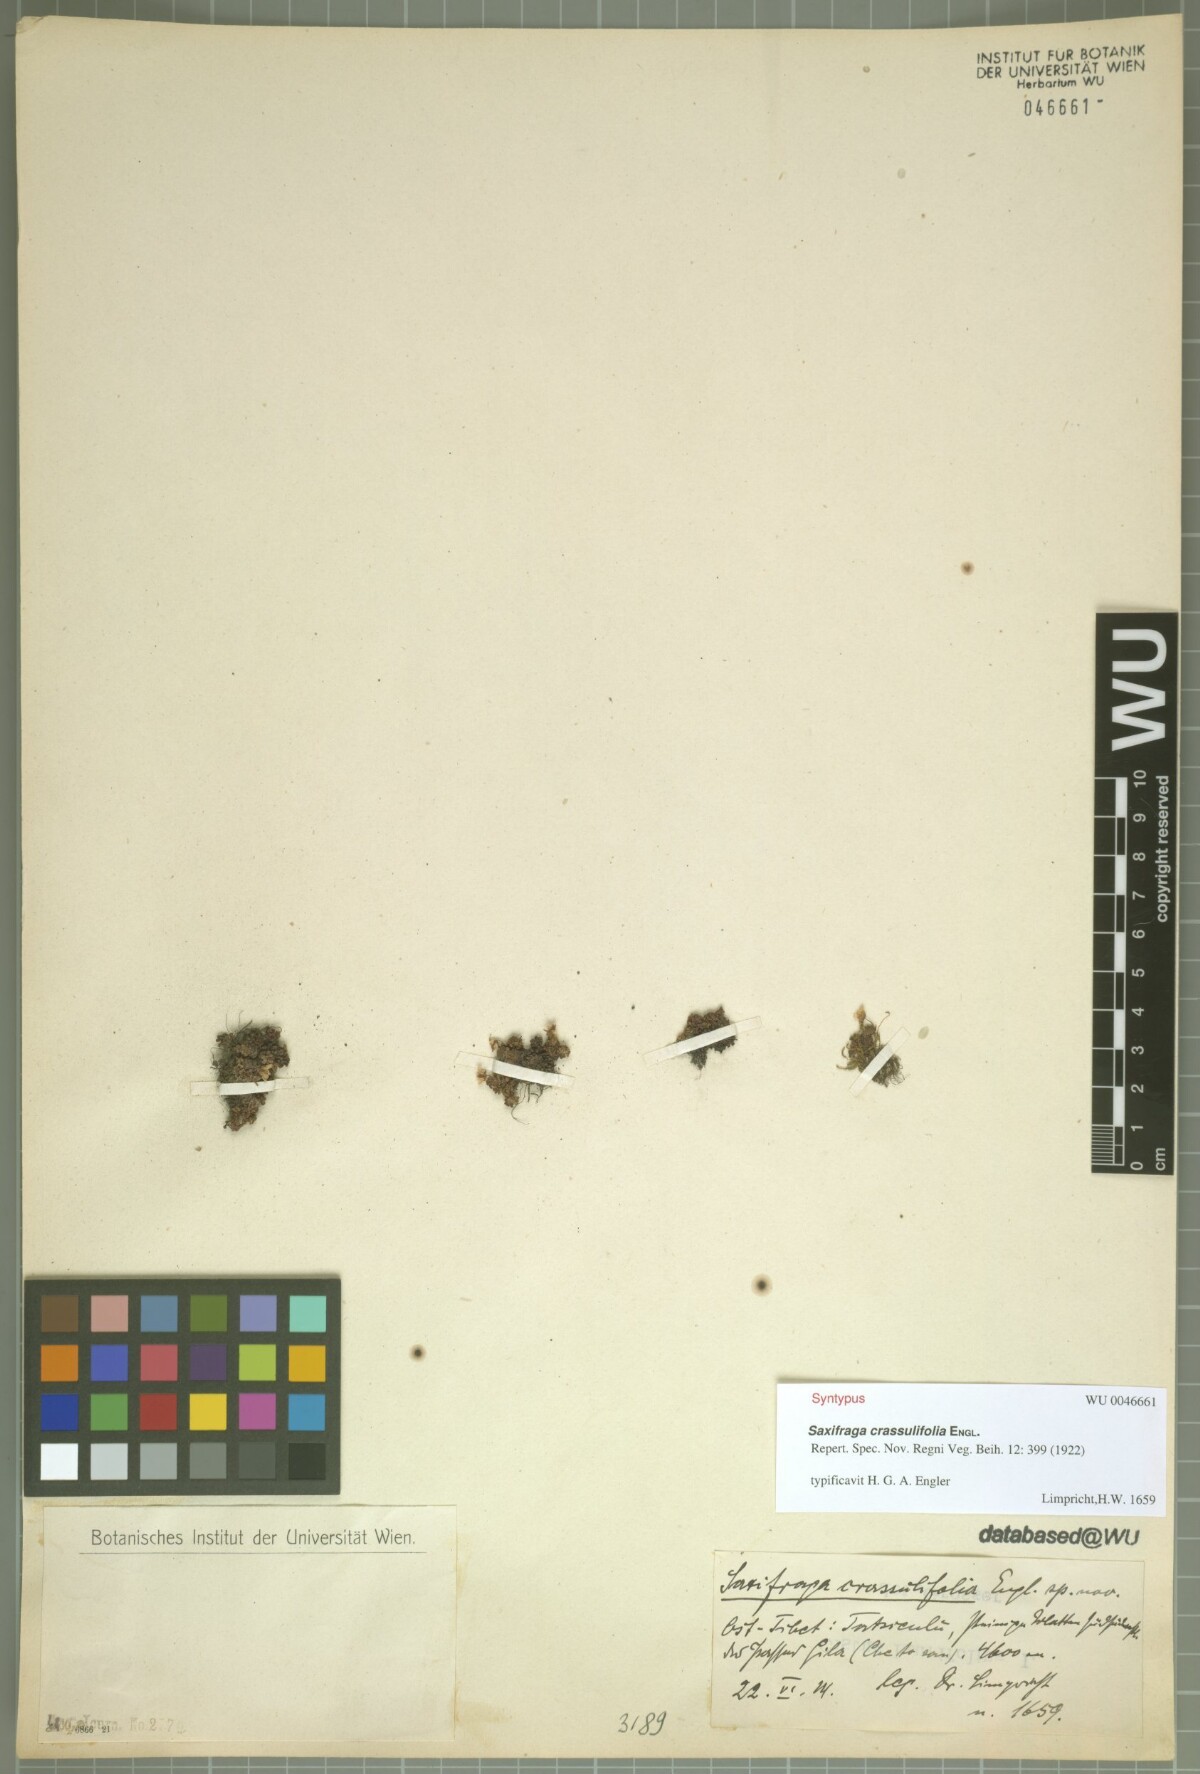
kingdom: Plantae
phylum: Tracheophyta
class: Magnoliopsida
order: Saxifragales
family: Saxifragaceae
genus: Saxifraga
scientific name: Saxifraga atuntsiensis
